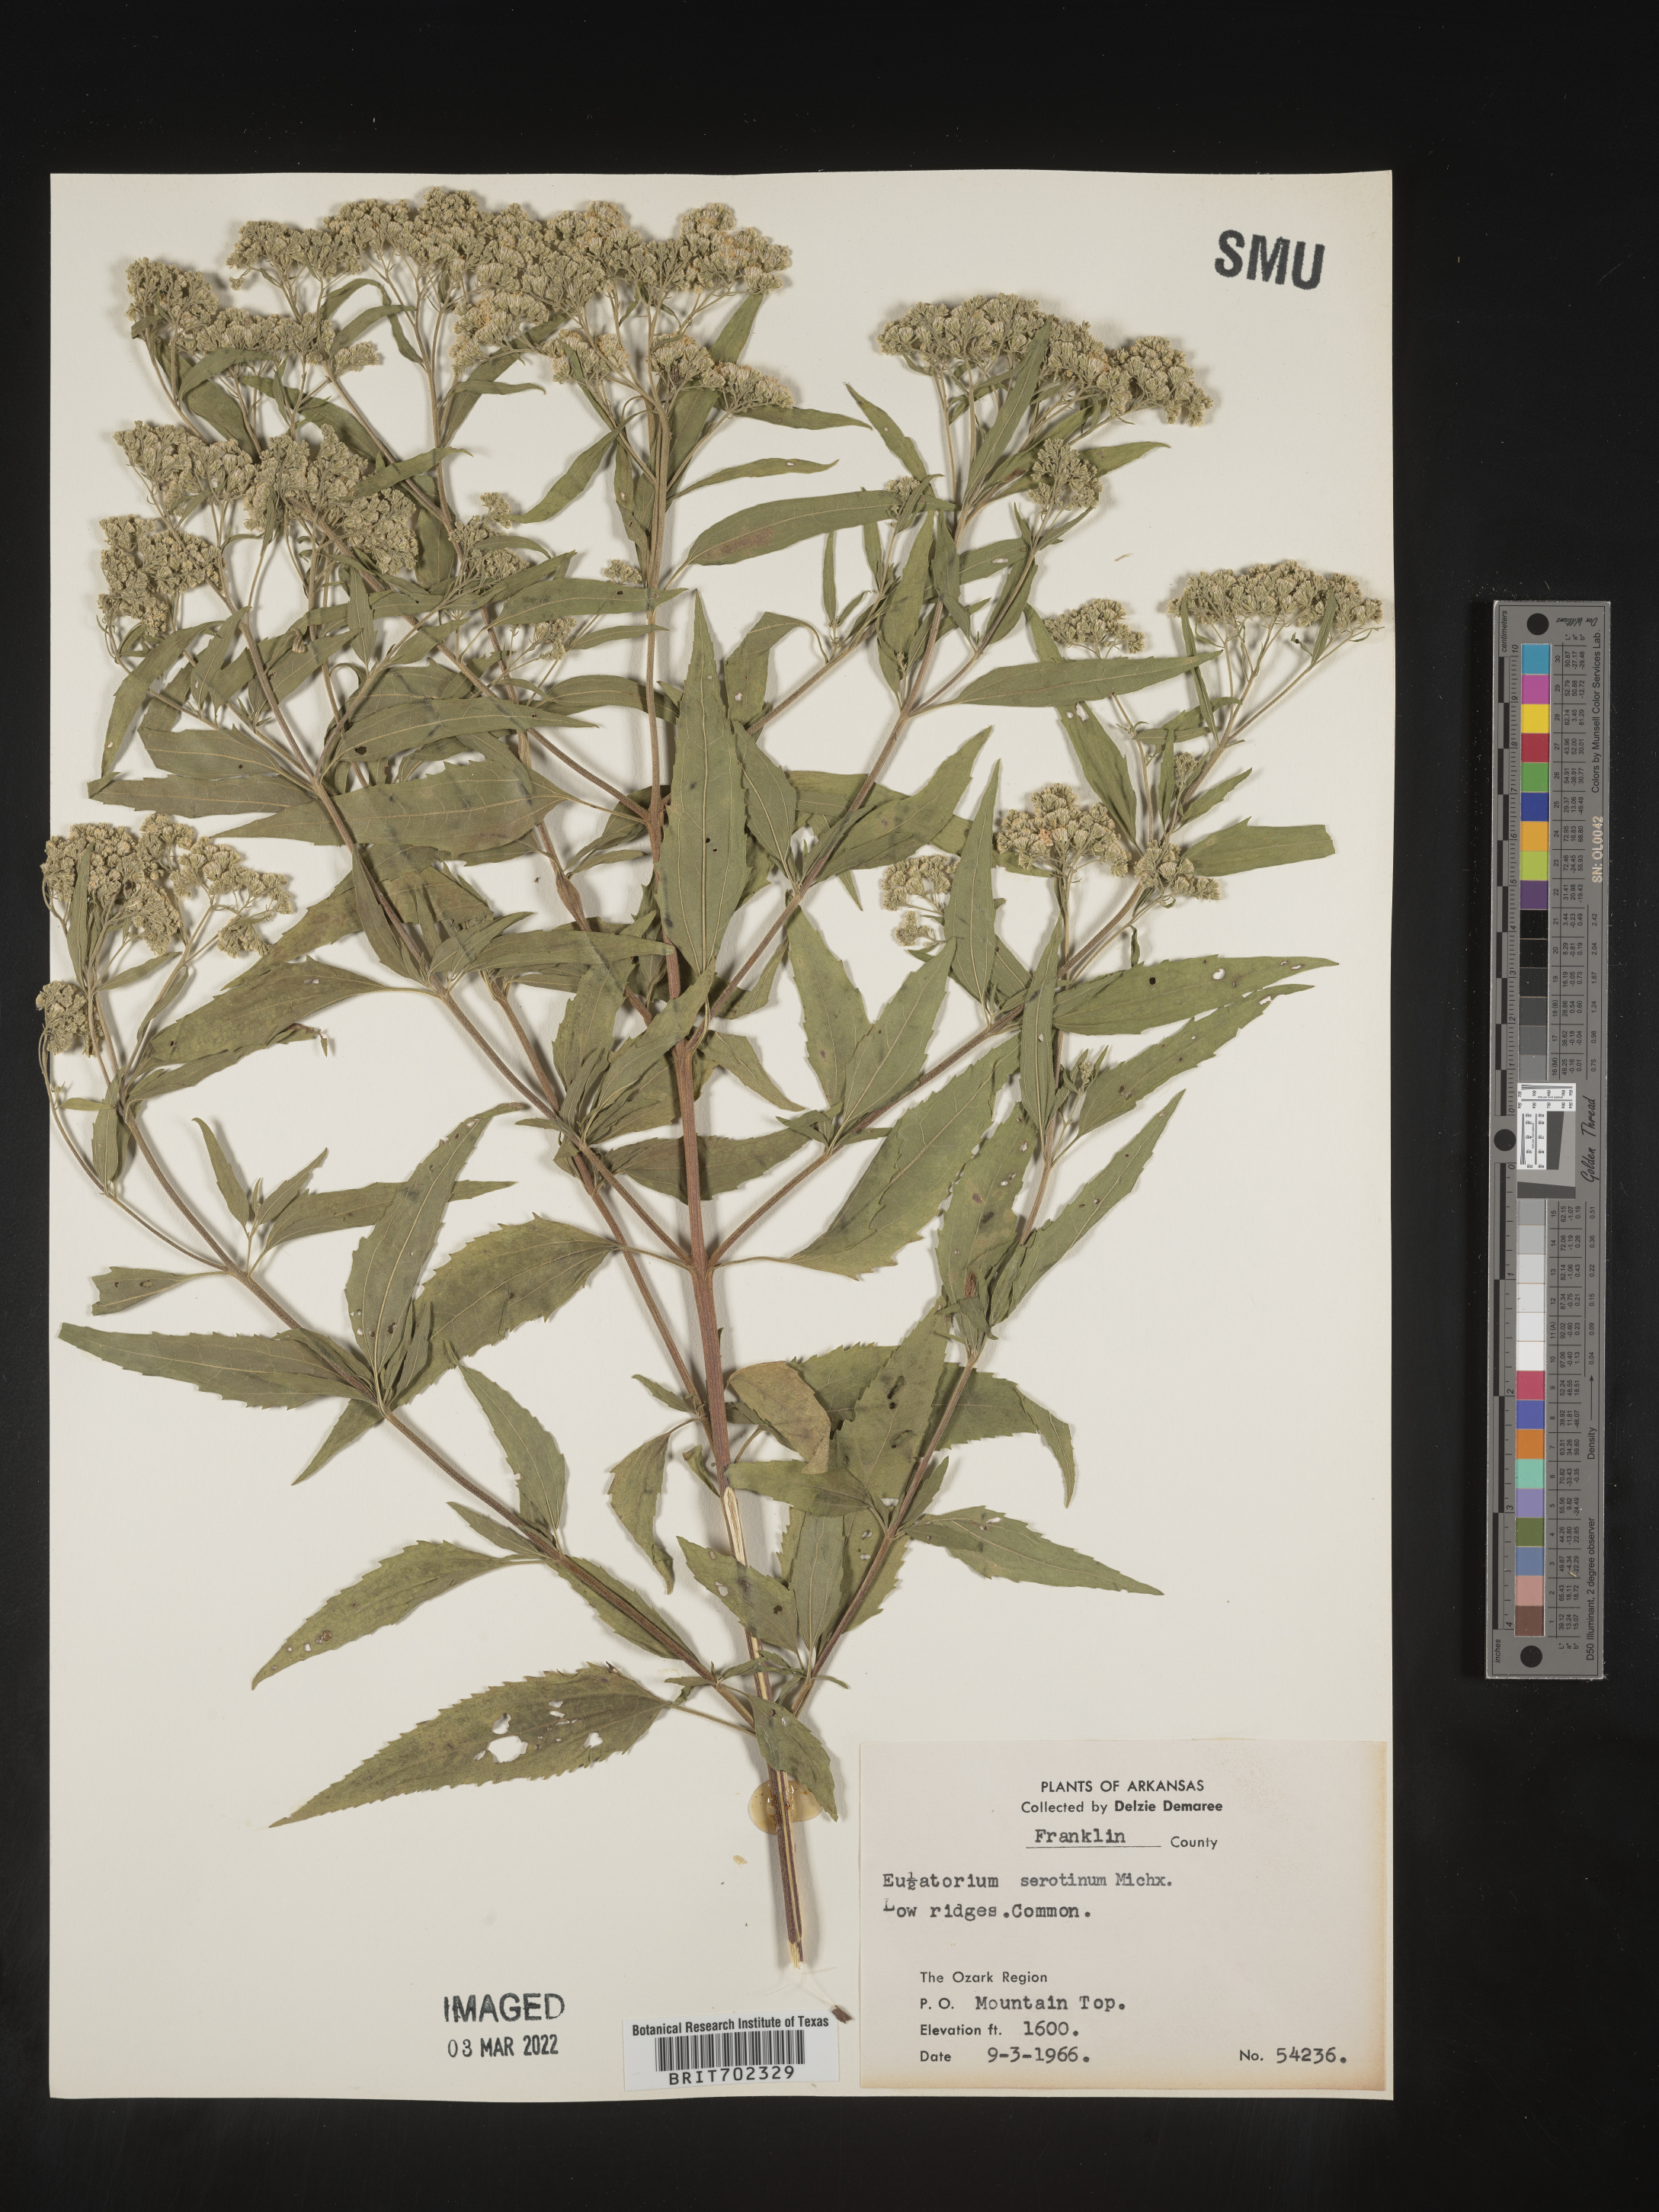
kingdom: Plantae
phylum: Tracheophyta
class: Magnoliopsida
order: Asterales
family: Asteraceae
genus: Eupatorium
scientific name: Eupatorium serotinum
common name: Late boneset
